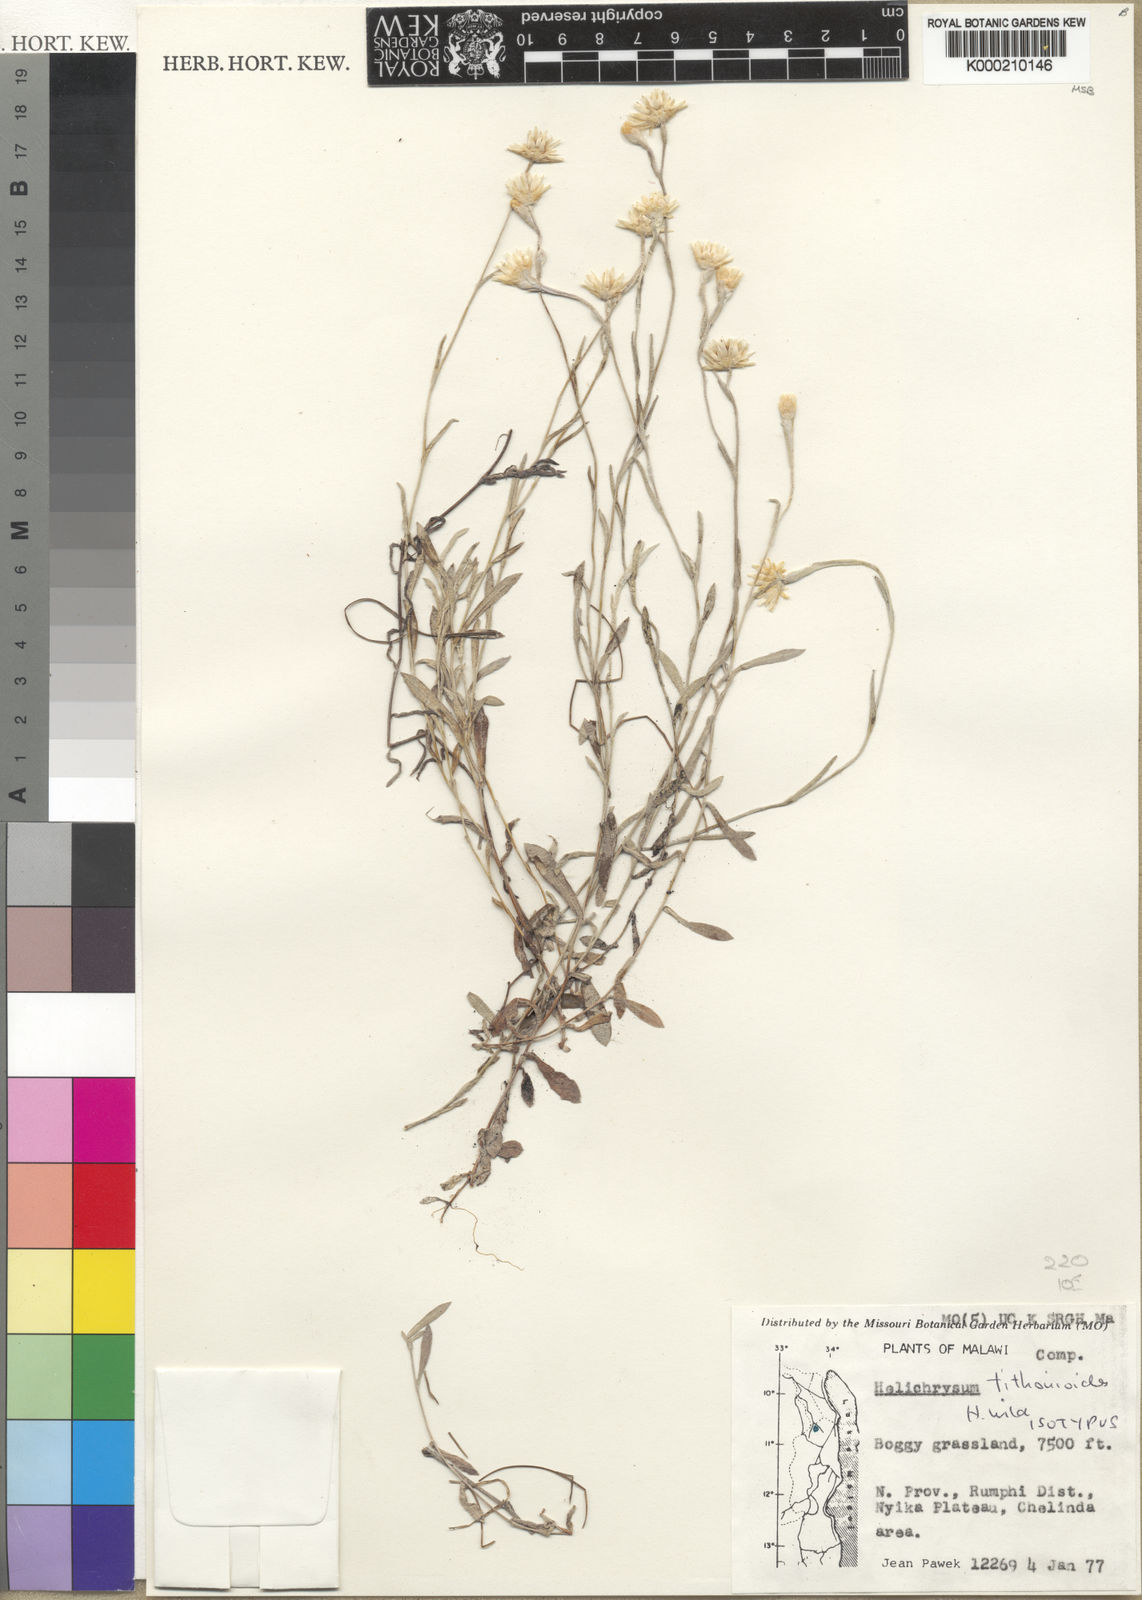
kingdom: Plantae
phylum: Tracheophyta
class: Magnoliopsida
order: Asterales
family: Asteraceae
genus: Helichrysum
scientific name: Helichrysum tithonioides
